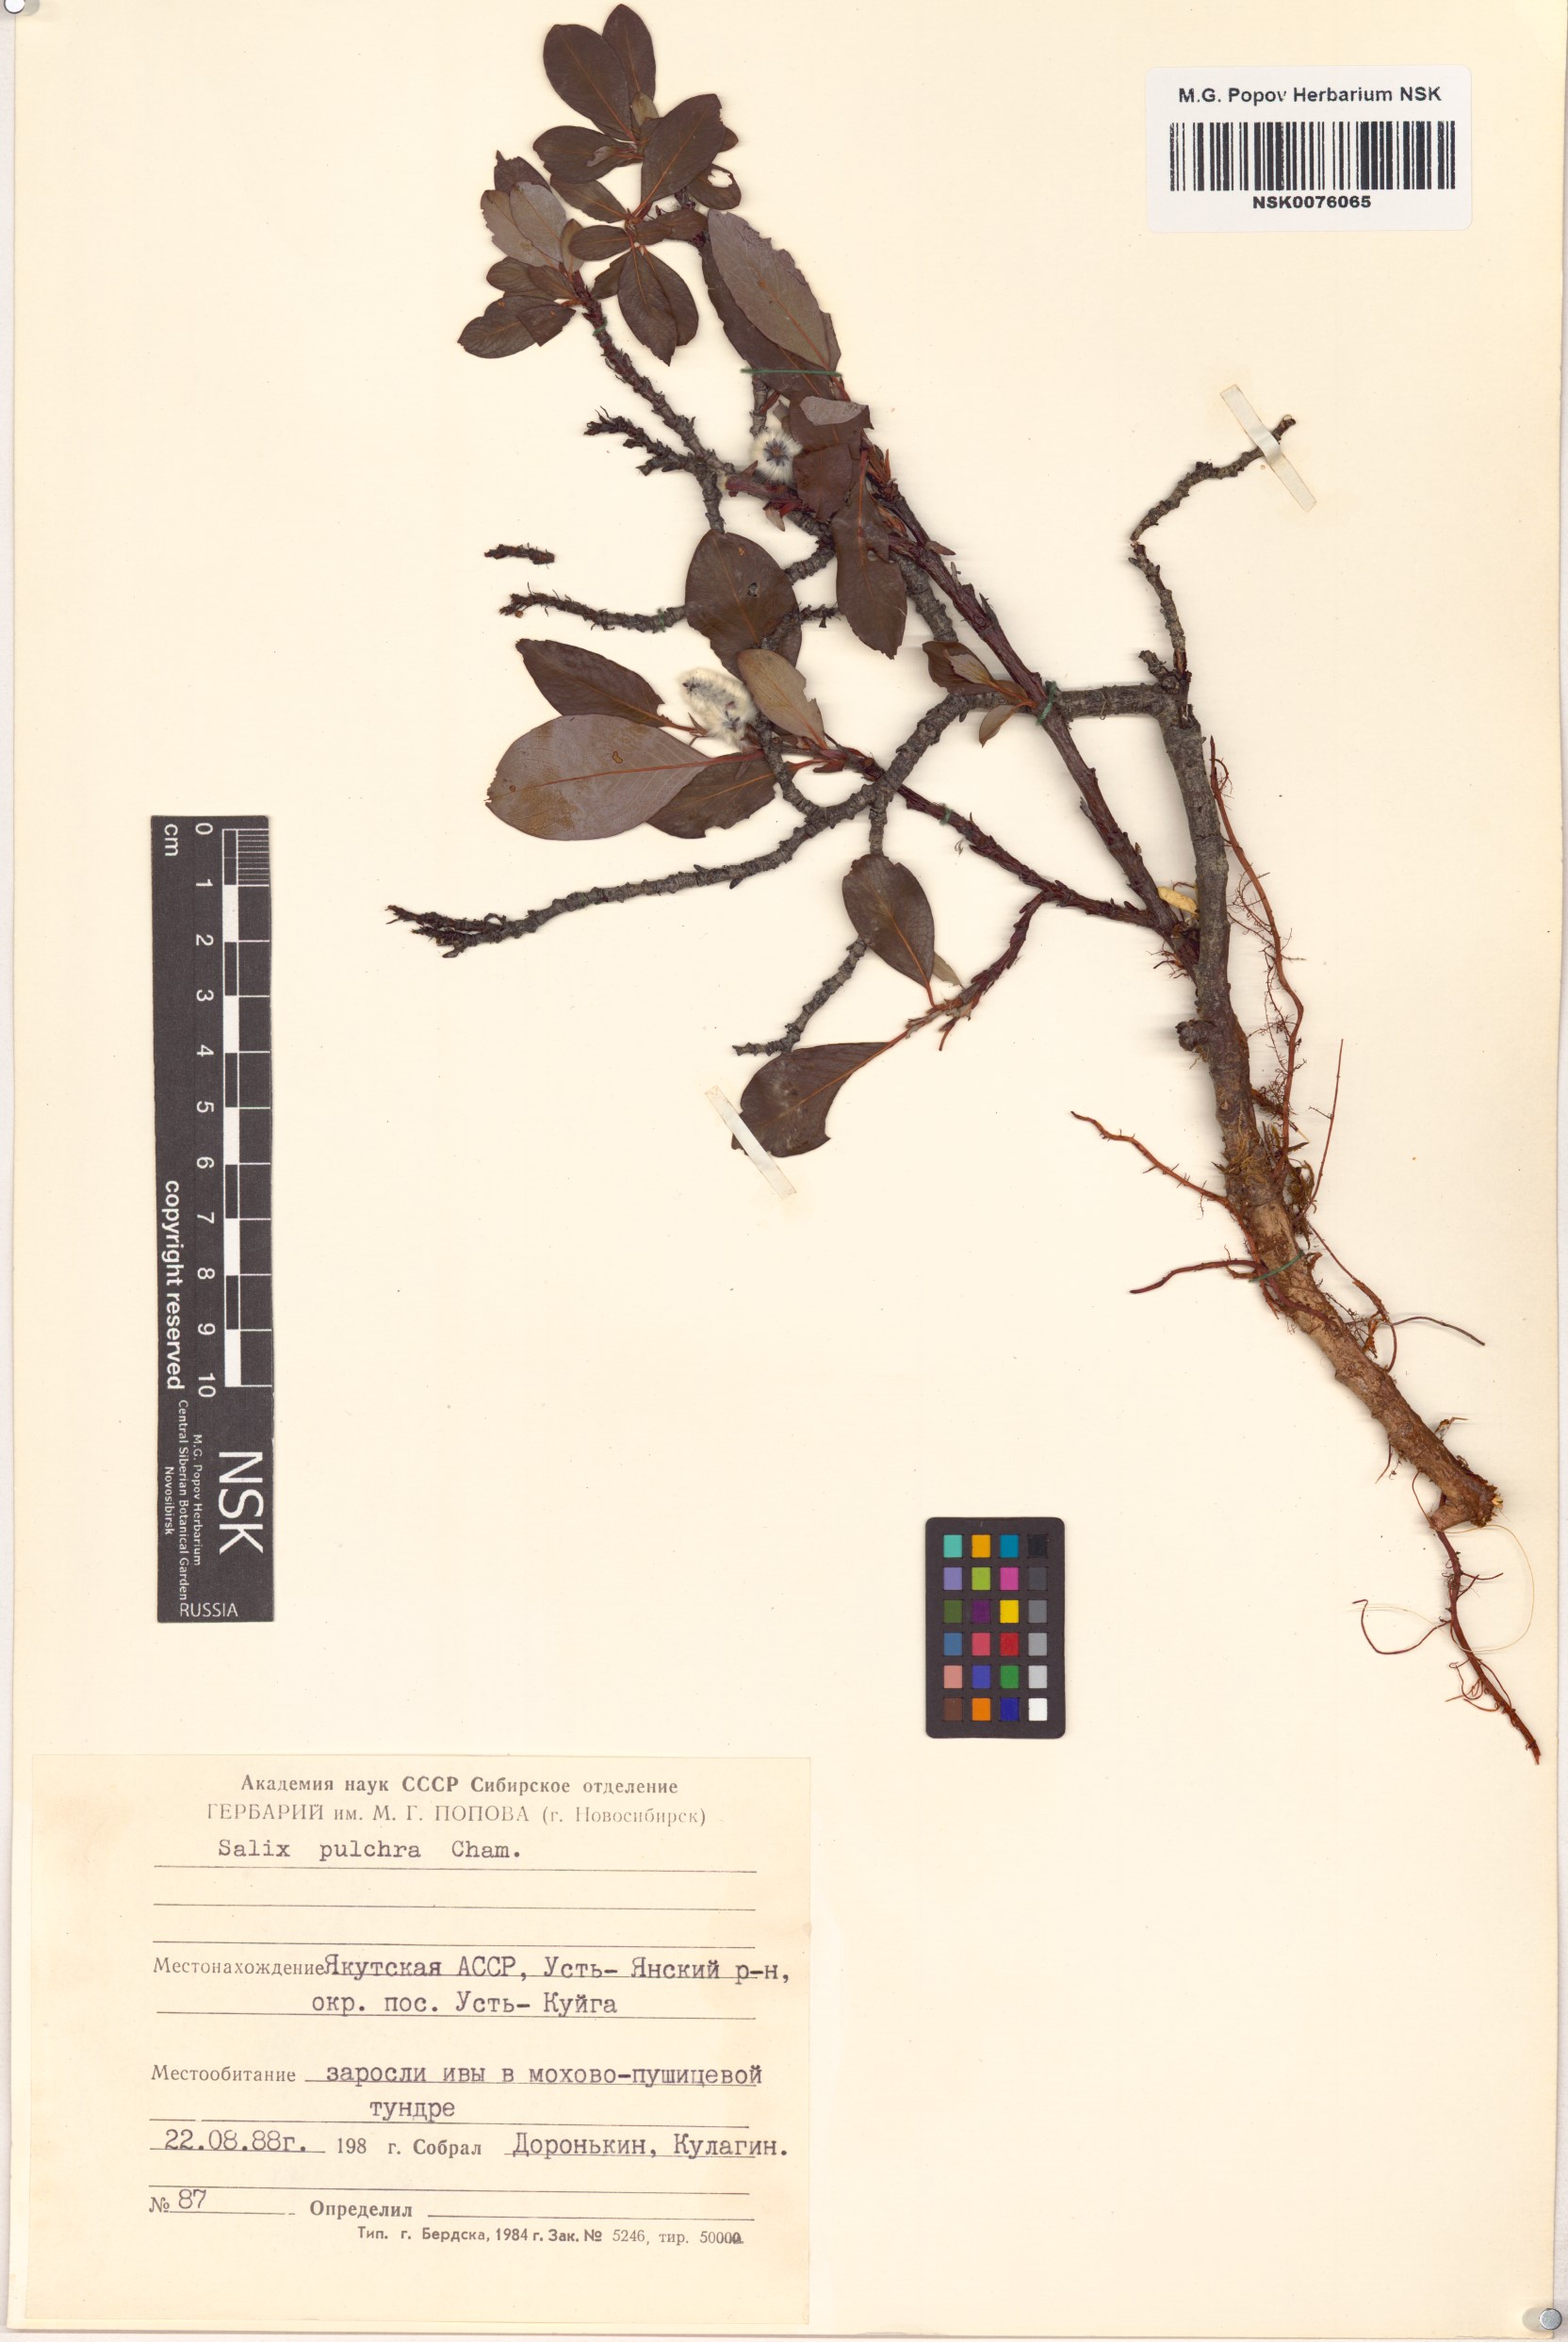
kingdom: Plantae
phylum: Tracheophyta
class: Magnoliopsida
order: Malpighiales
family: Salicaceae
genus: Salix
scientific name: Salix pulchra
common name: Diamond-leaved willow
